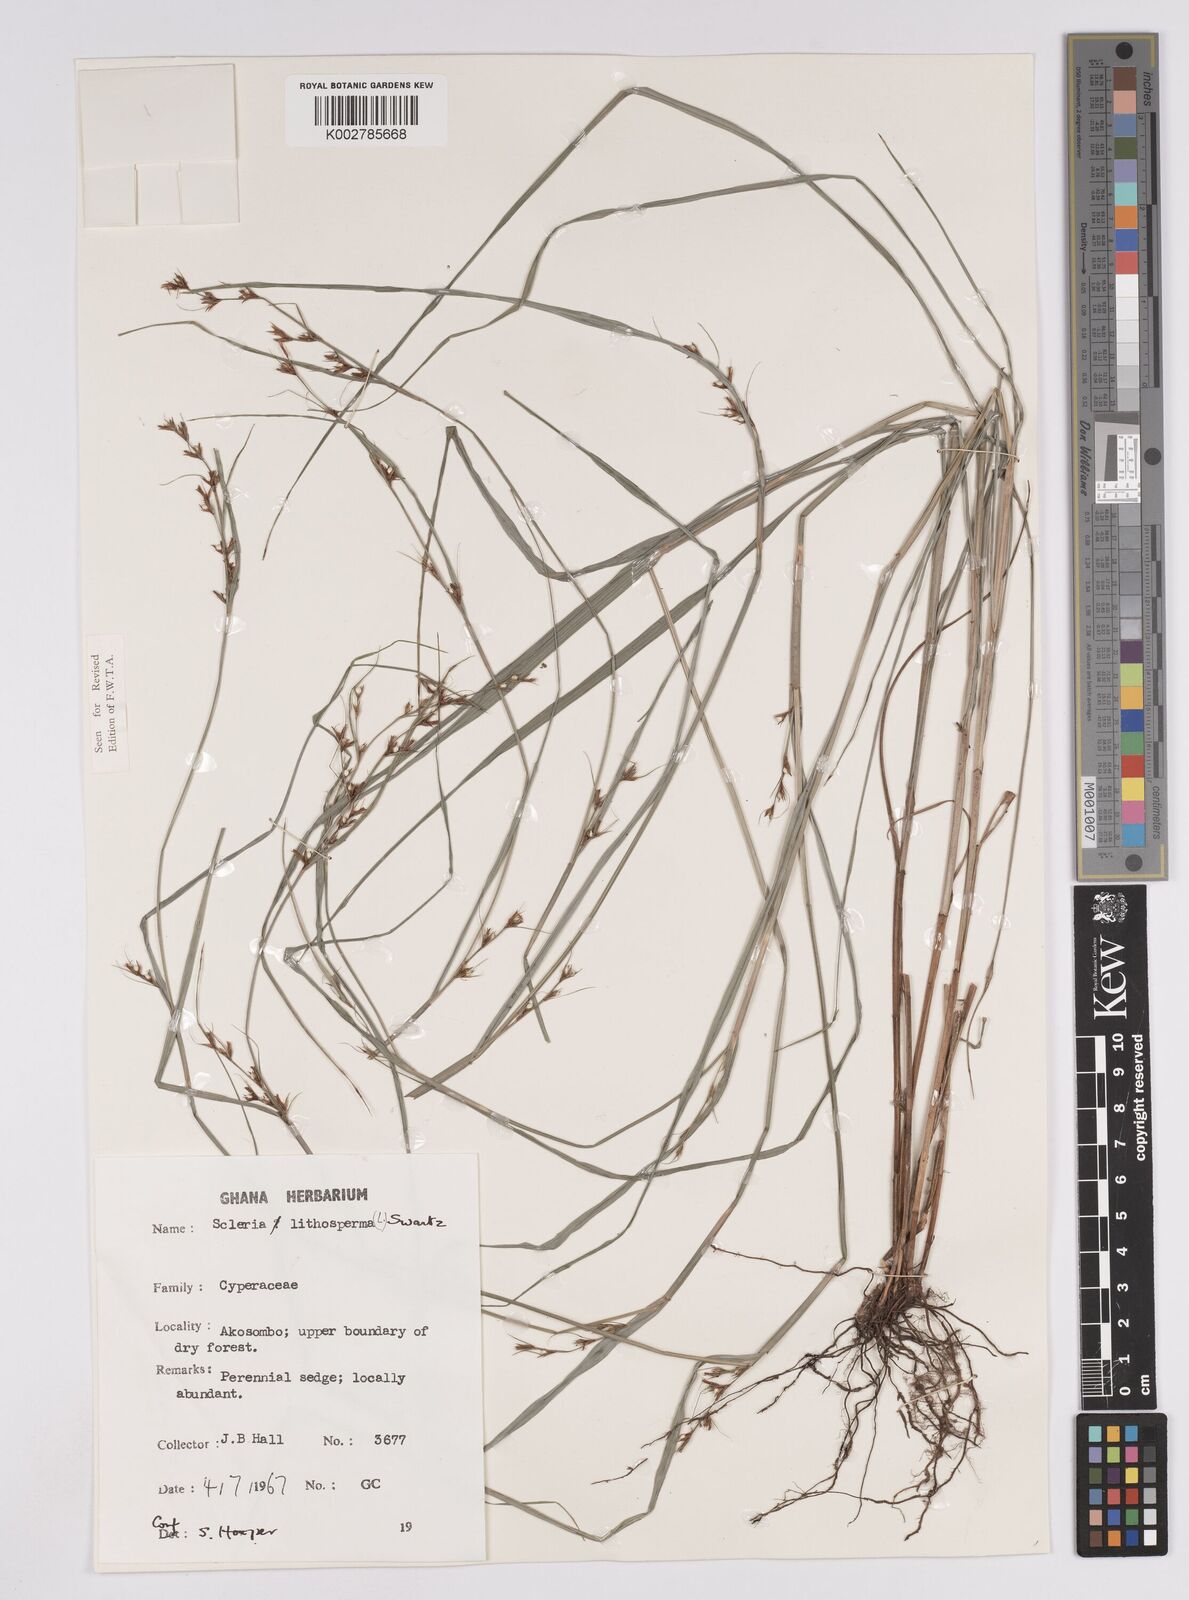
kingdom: Plantae
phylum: Tracheophyta
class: Liliopsida
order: Poales
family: Cyperaceae
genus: Scleria
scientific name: Scleria lithosperma
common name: Florida keys nut-rush
